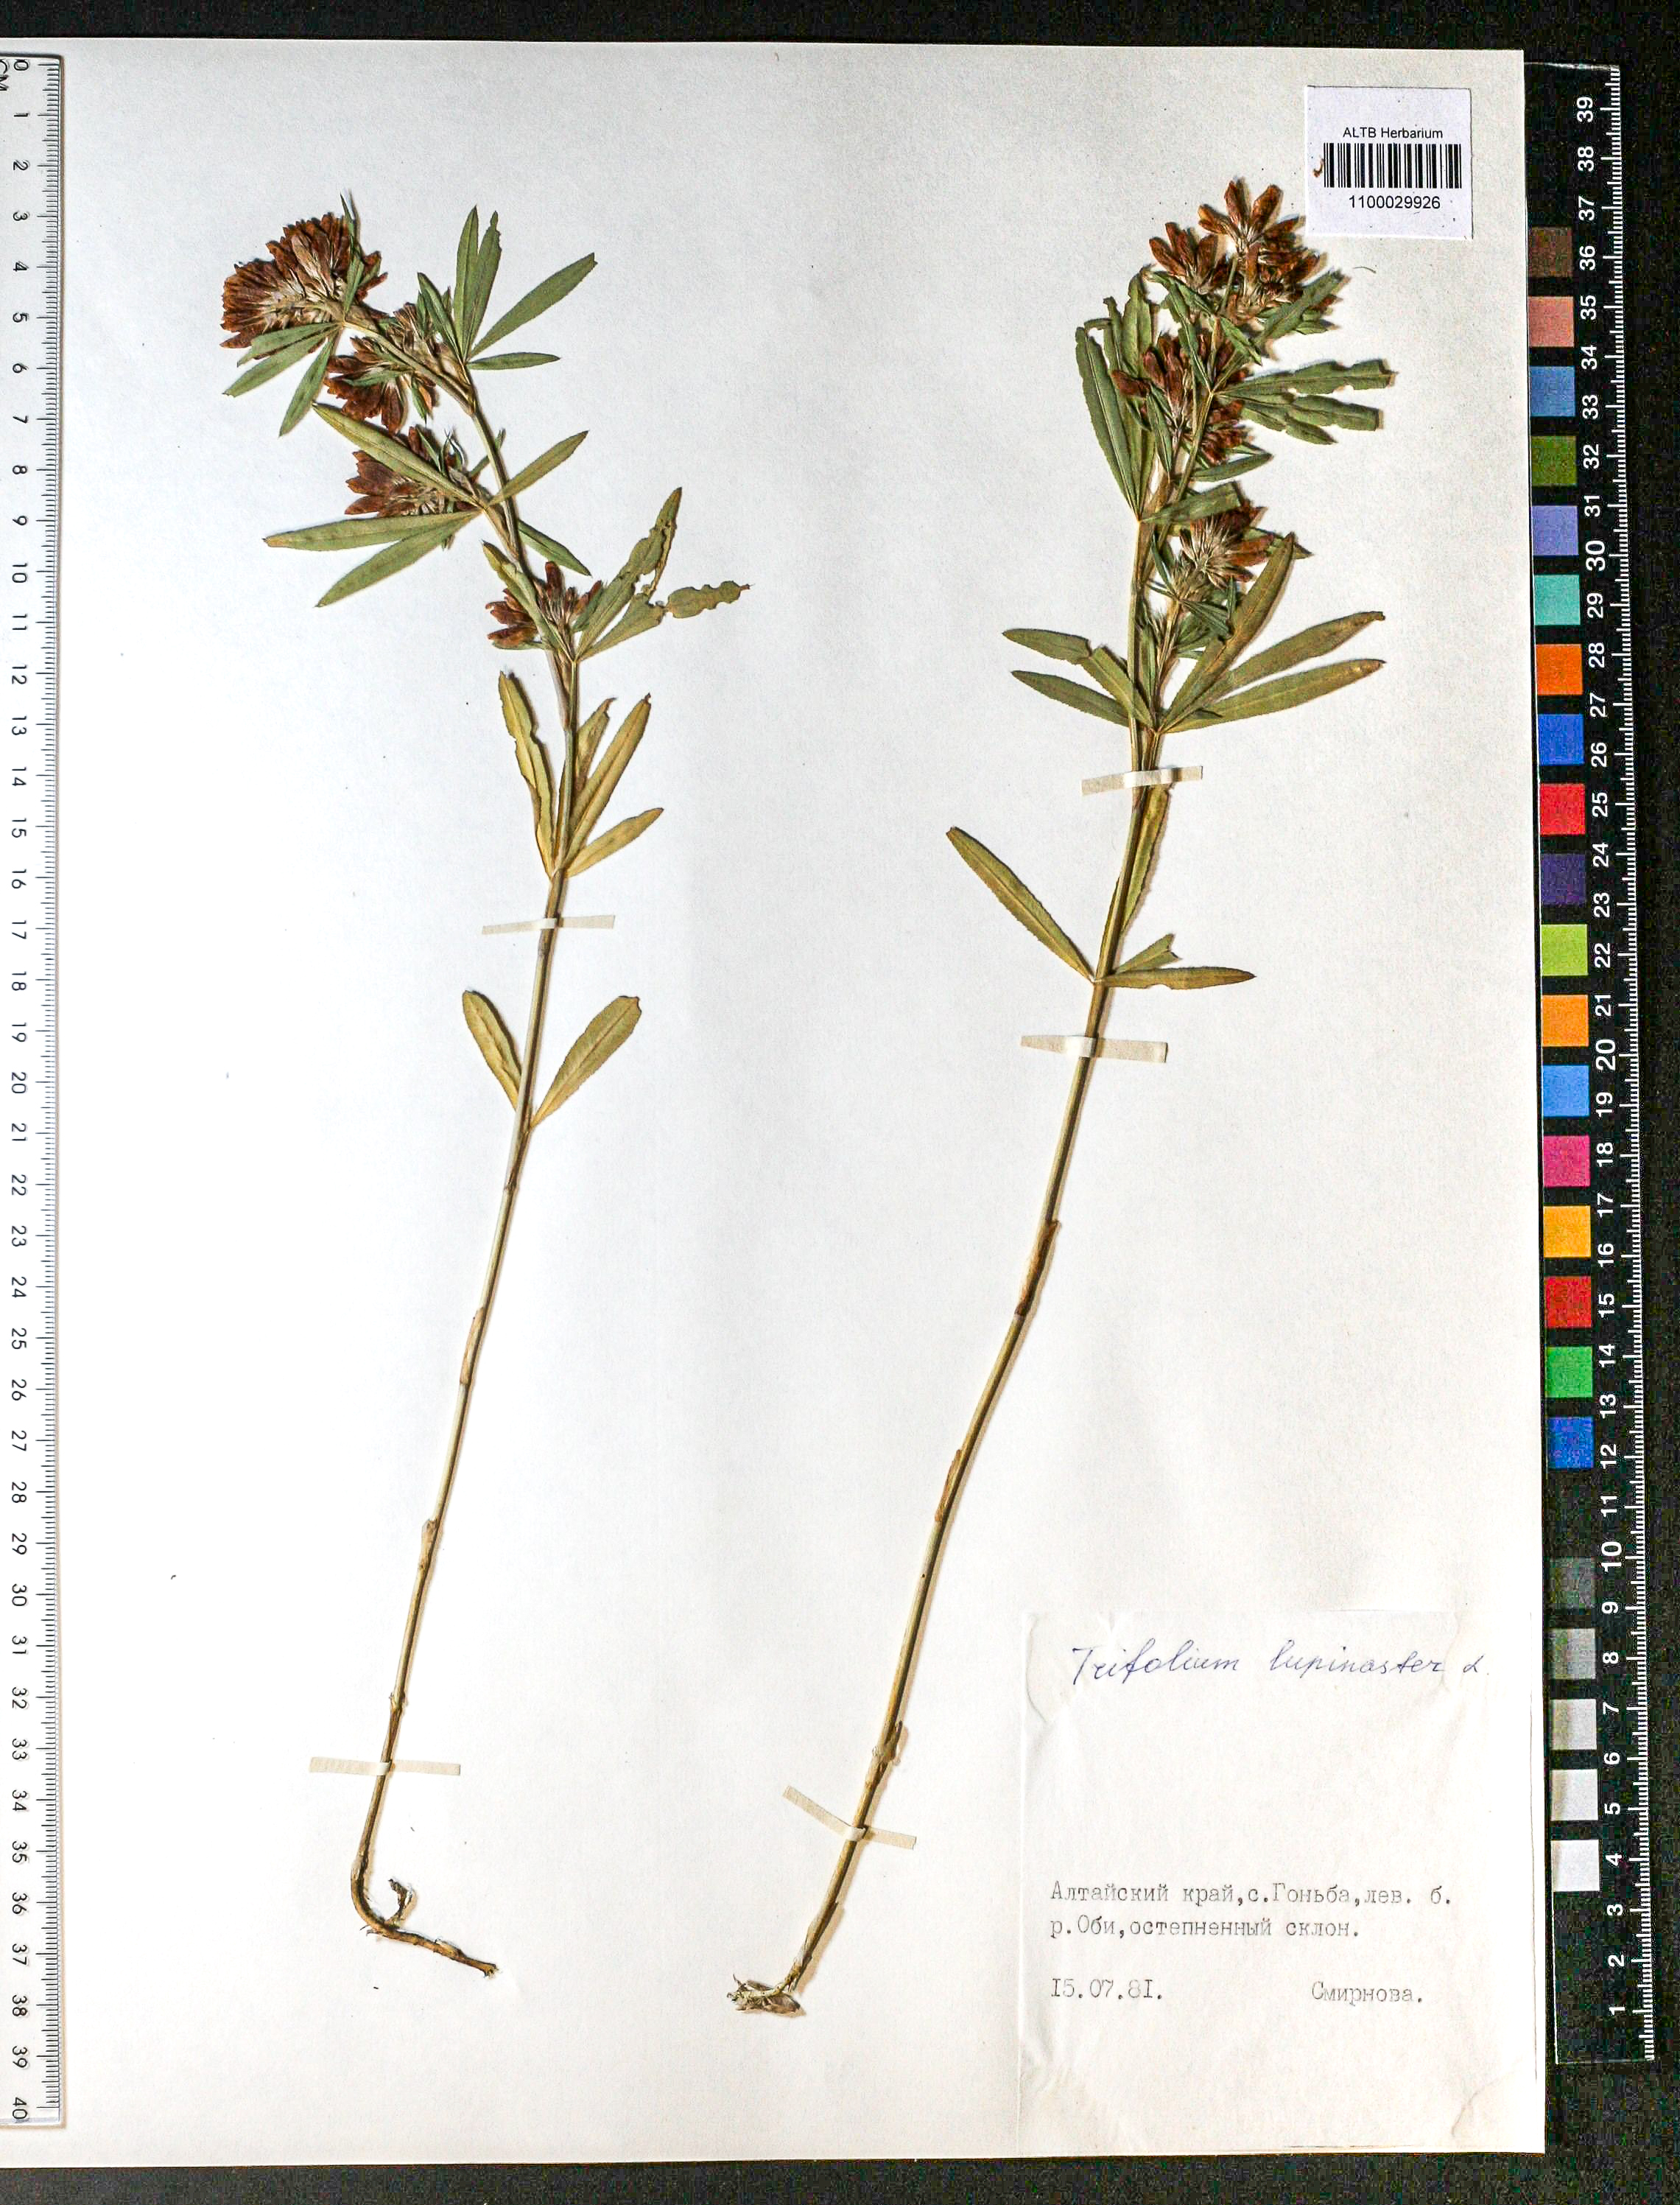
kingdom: Plantae
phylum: Tracheophyta
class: Magnoliopsida
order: Fabales
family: Fabaceae
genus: Trifolium
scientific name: Trifolium lupinaster
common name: Lupine clover
